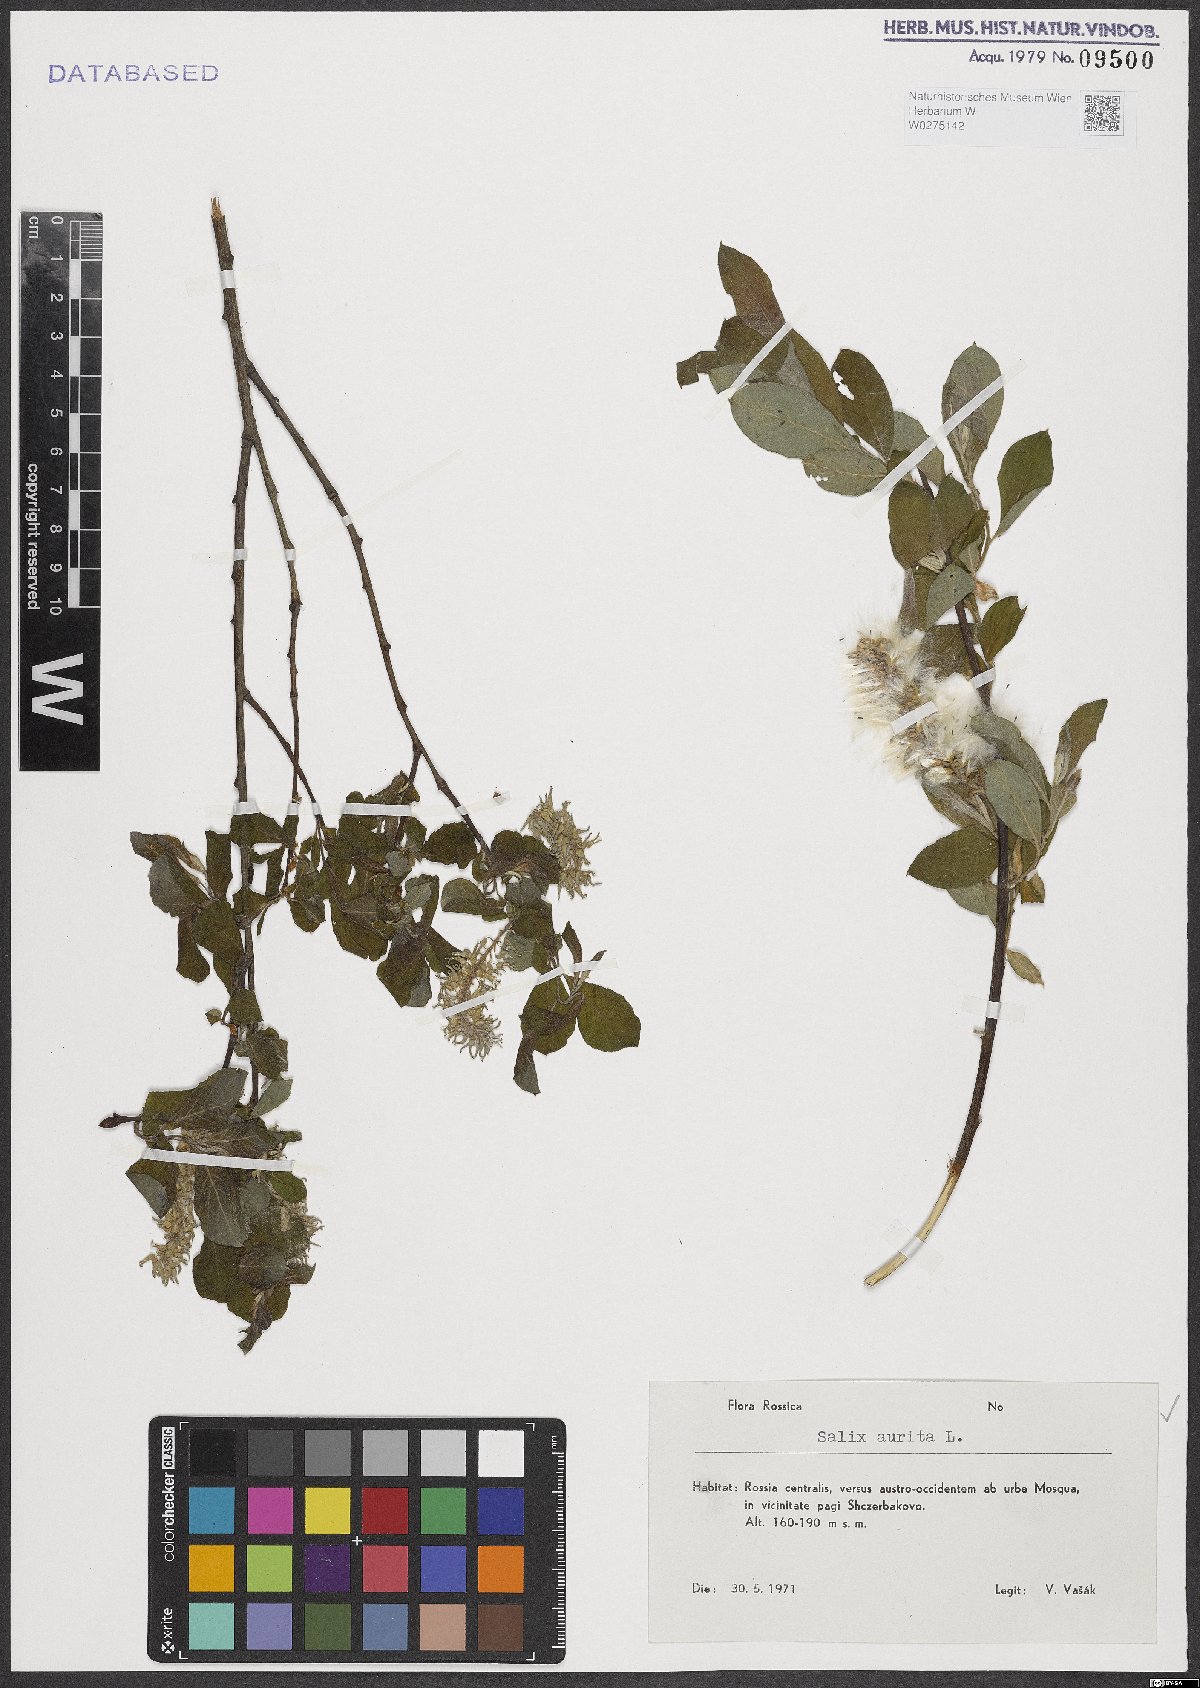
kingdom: Plantae
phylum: Tracheophyta
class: Magnoliopsida
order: Malpighiales
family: Salicaceae
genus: Salix
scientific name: Salix aurita
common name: Eared willow
